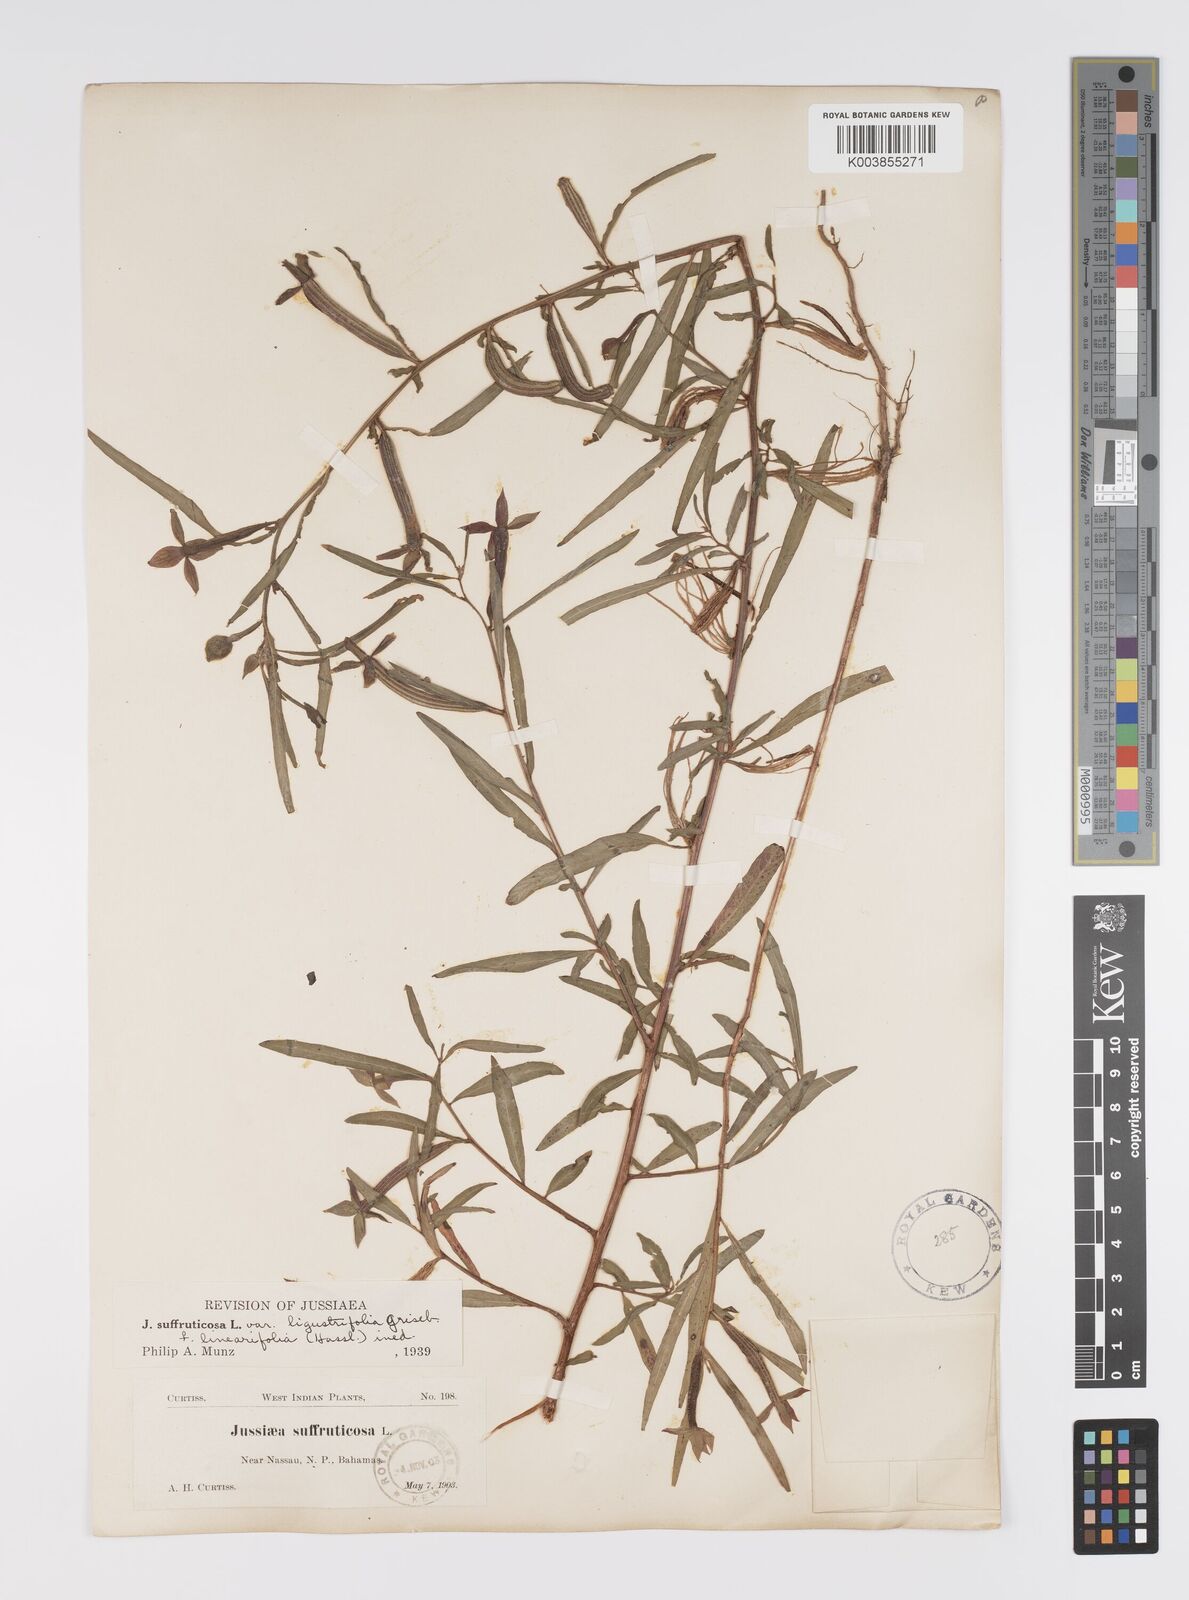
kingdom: Plantae
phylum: Tracheophyta
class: Magnoliopsida
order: Myrtales
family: Onagraceae
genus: Ludwigia
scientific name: Ludwigia octovalvis
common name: Water-primrose
